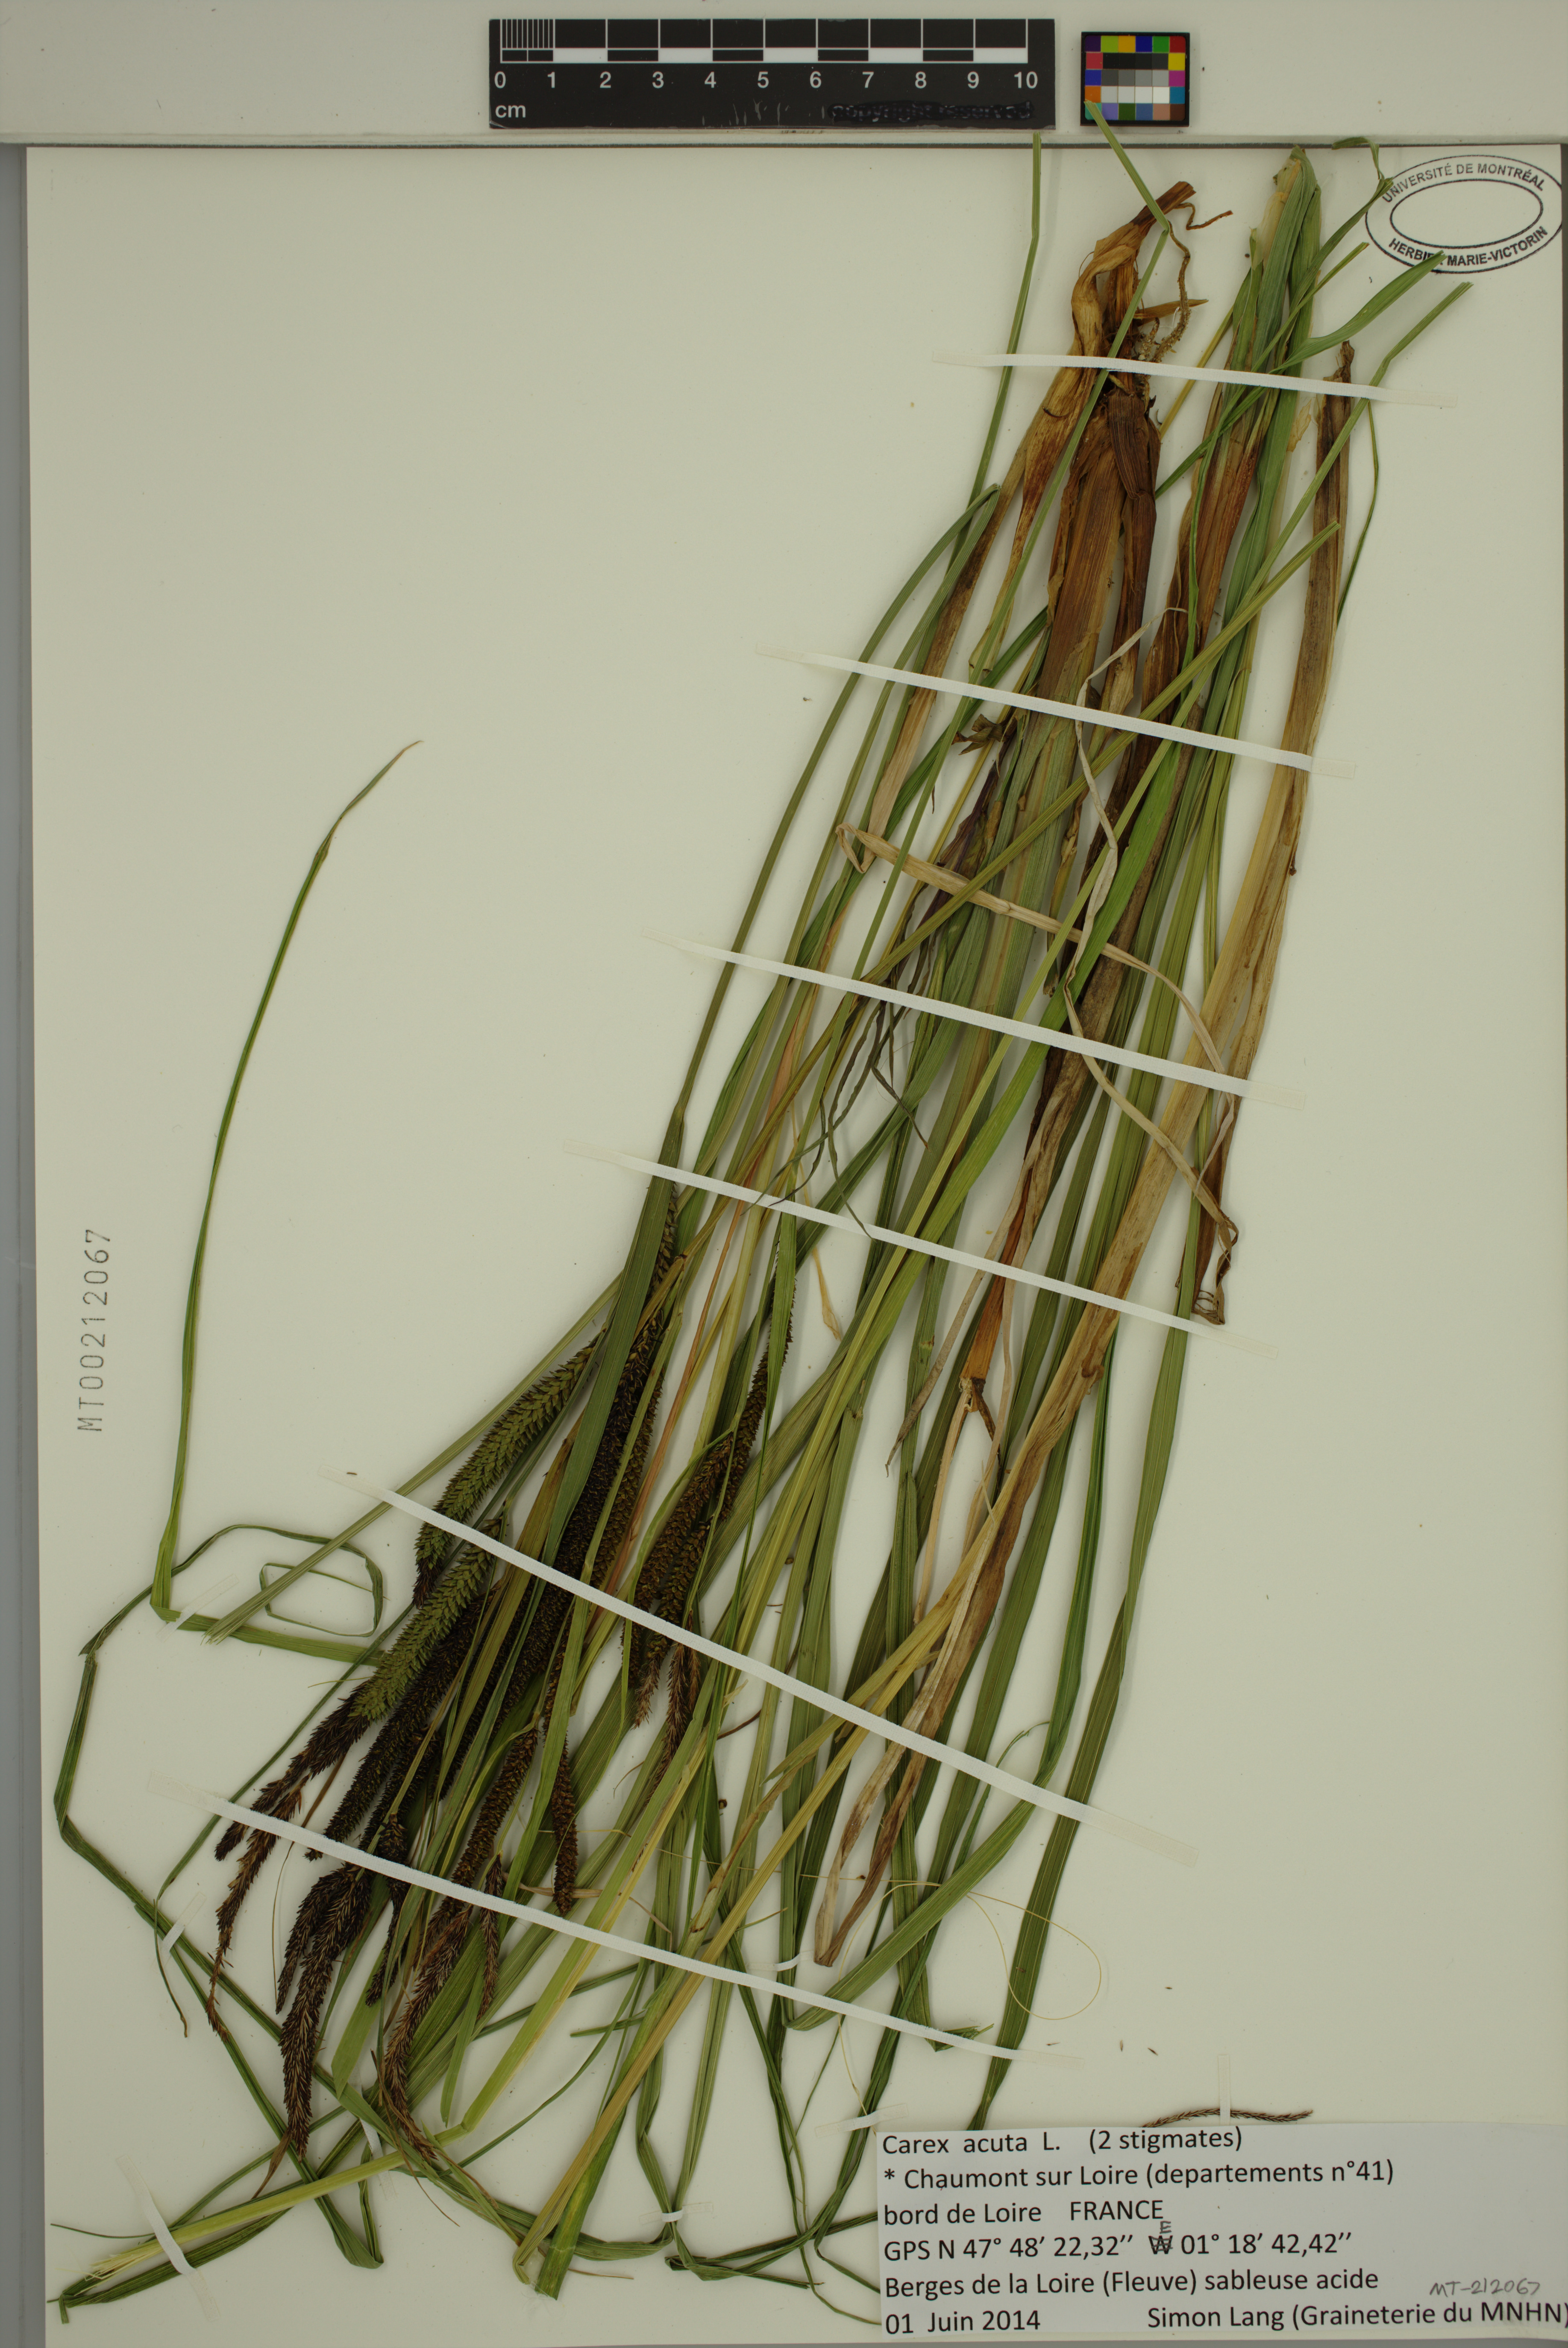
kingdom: Plantae
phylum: Tracheophyta
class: Liliopsida
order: Poales
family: Cyperaceae
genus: Carex
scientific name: Carex acuta
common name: Slender tufted-sedge
